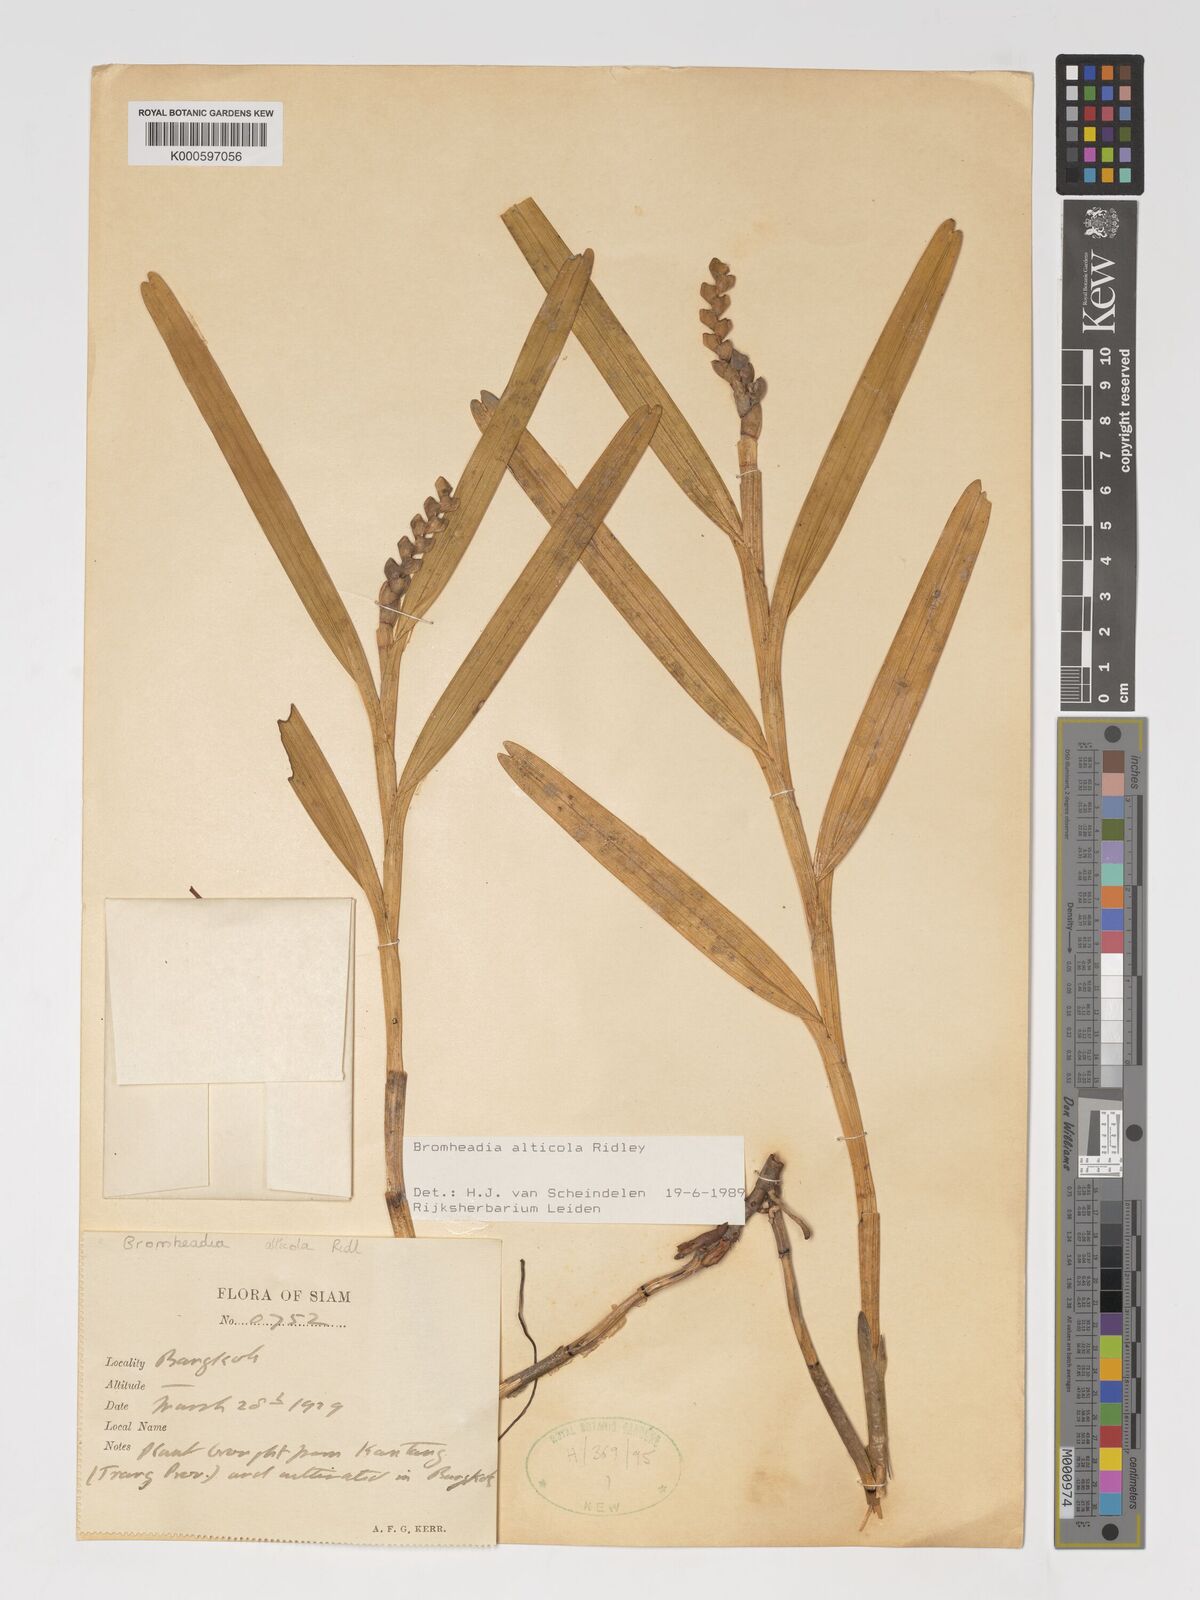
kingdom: Plantae
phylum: Tracheophyta
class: Liliopsida
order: Asparagales
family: Orchidaceae
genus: Bromheadia
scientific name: Bromheadia alticola
